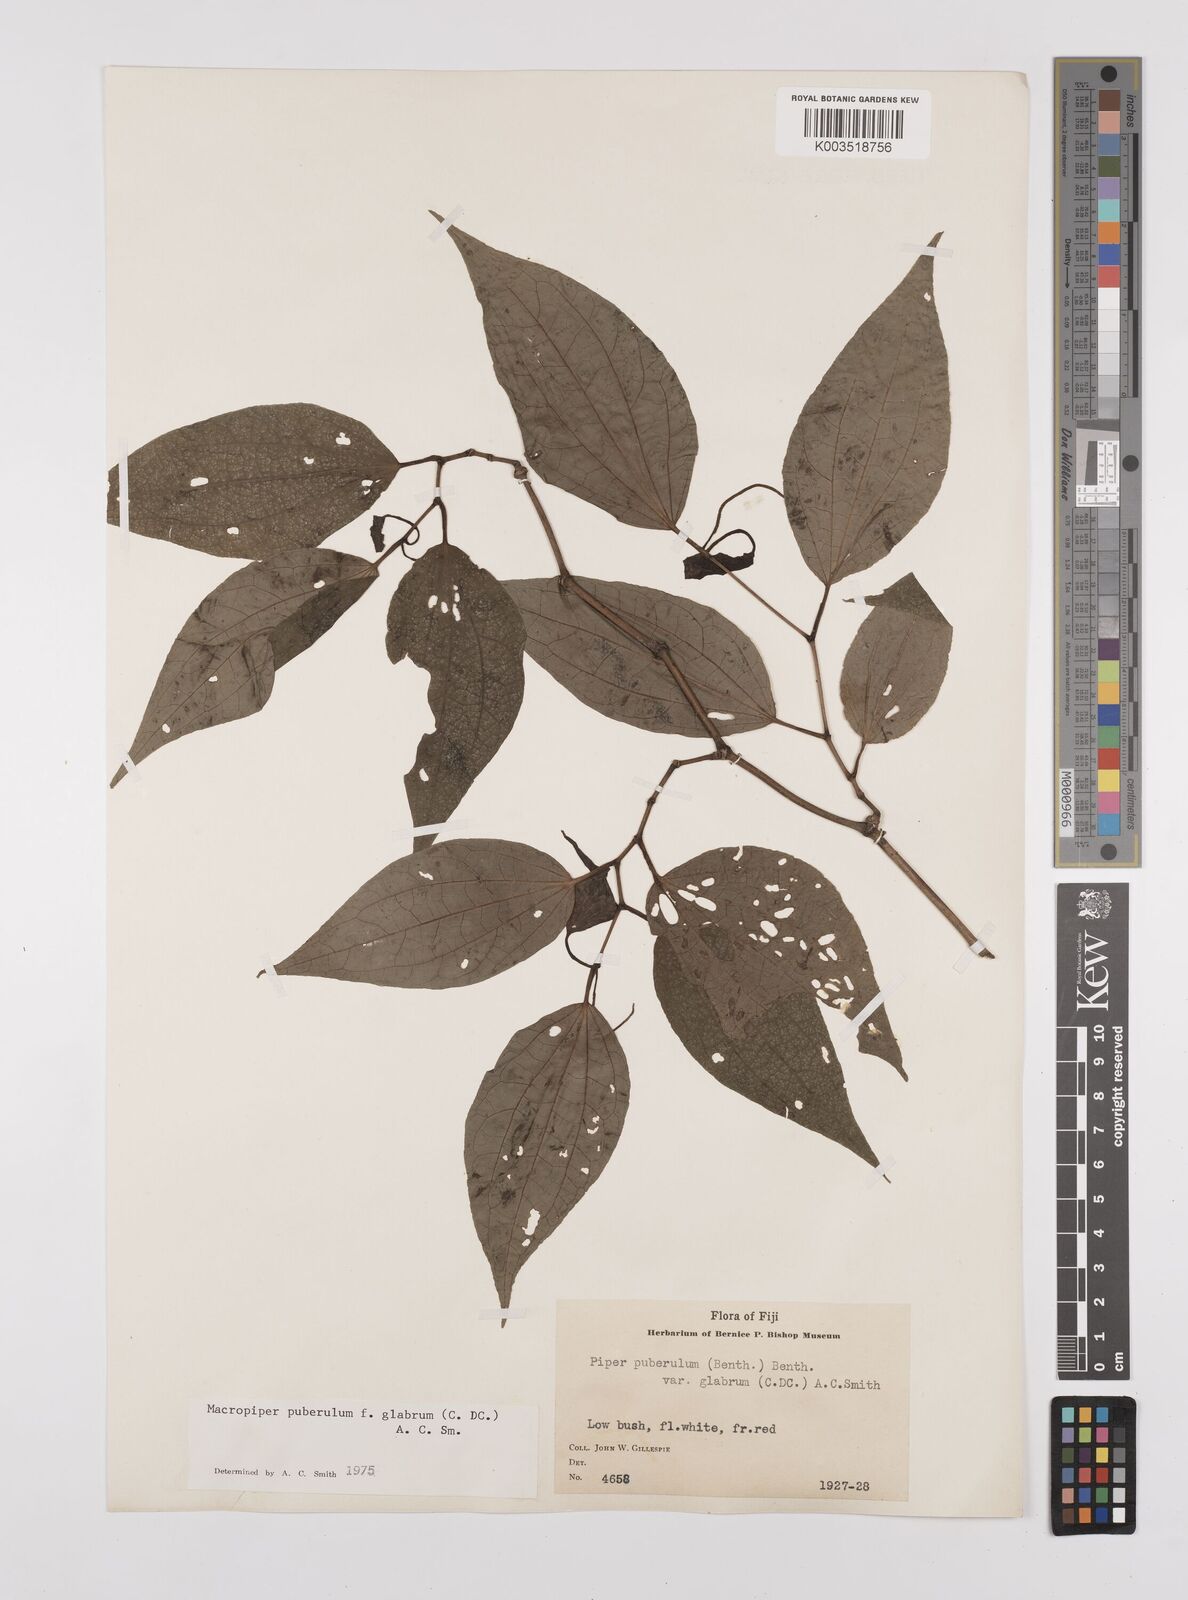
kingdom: Plantae
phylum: Tracheophyta
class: Magnoliopsida
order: Piperales
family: Piperaceae
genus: Macropiper
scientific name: Macropiper puberulum
